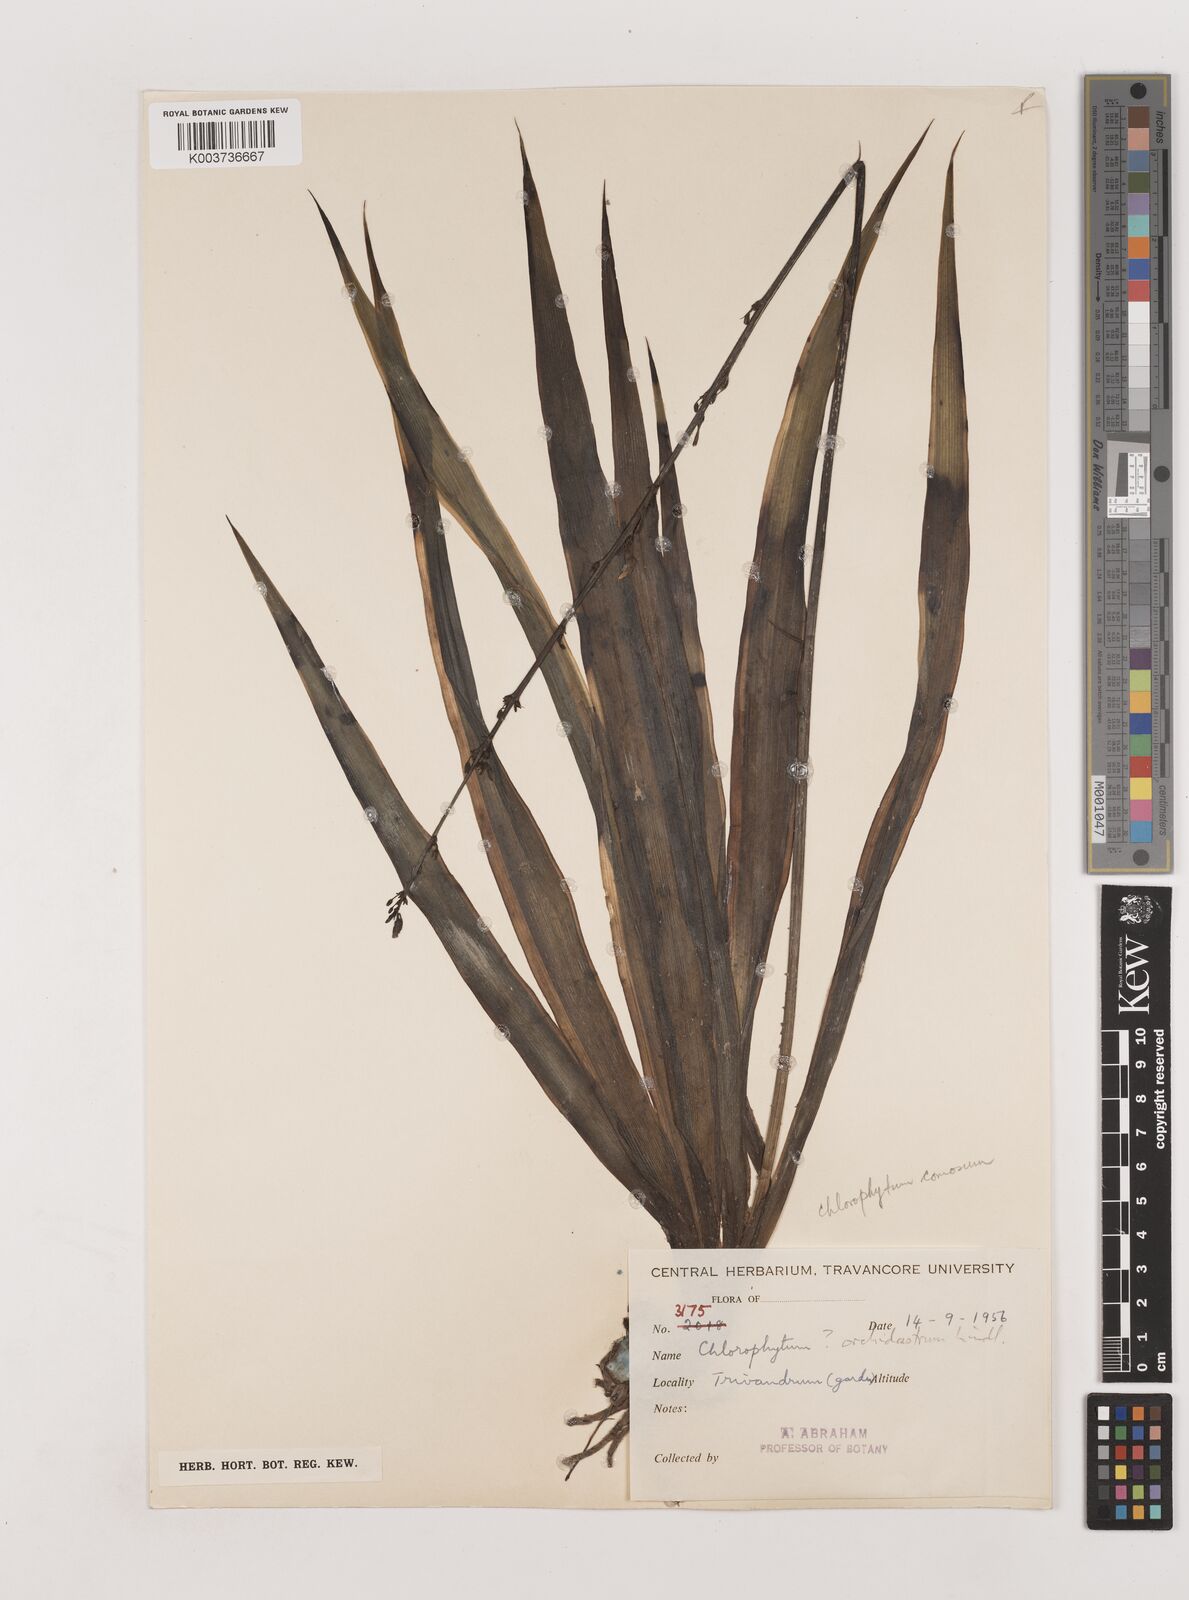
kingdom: Plantae
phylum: Tracheophyta
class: Liliopsida
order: Asparagales
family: Asparagaceae
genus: Chlorophytum
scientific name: Chlorophytum comosum
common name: Spider plant
